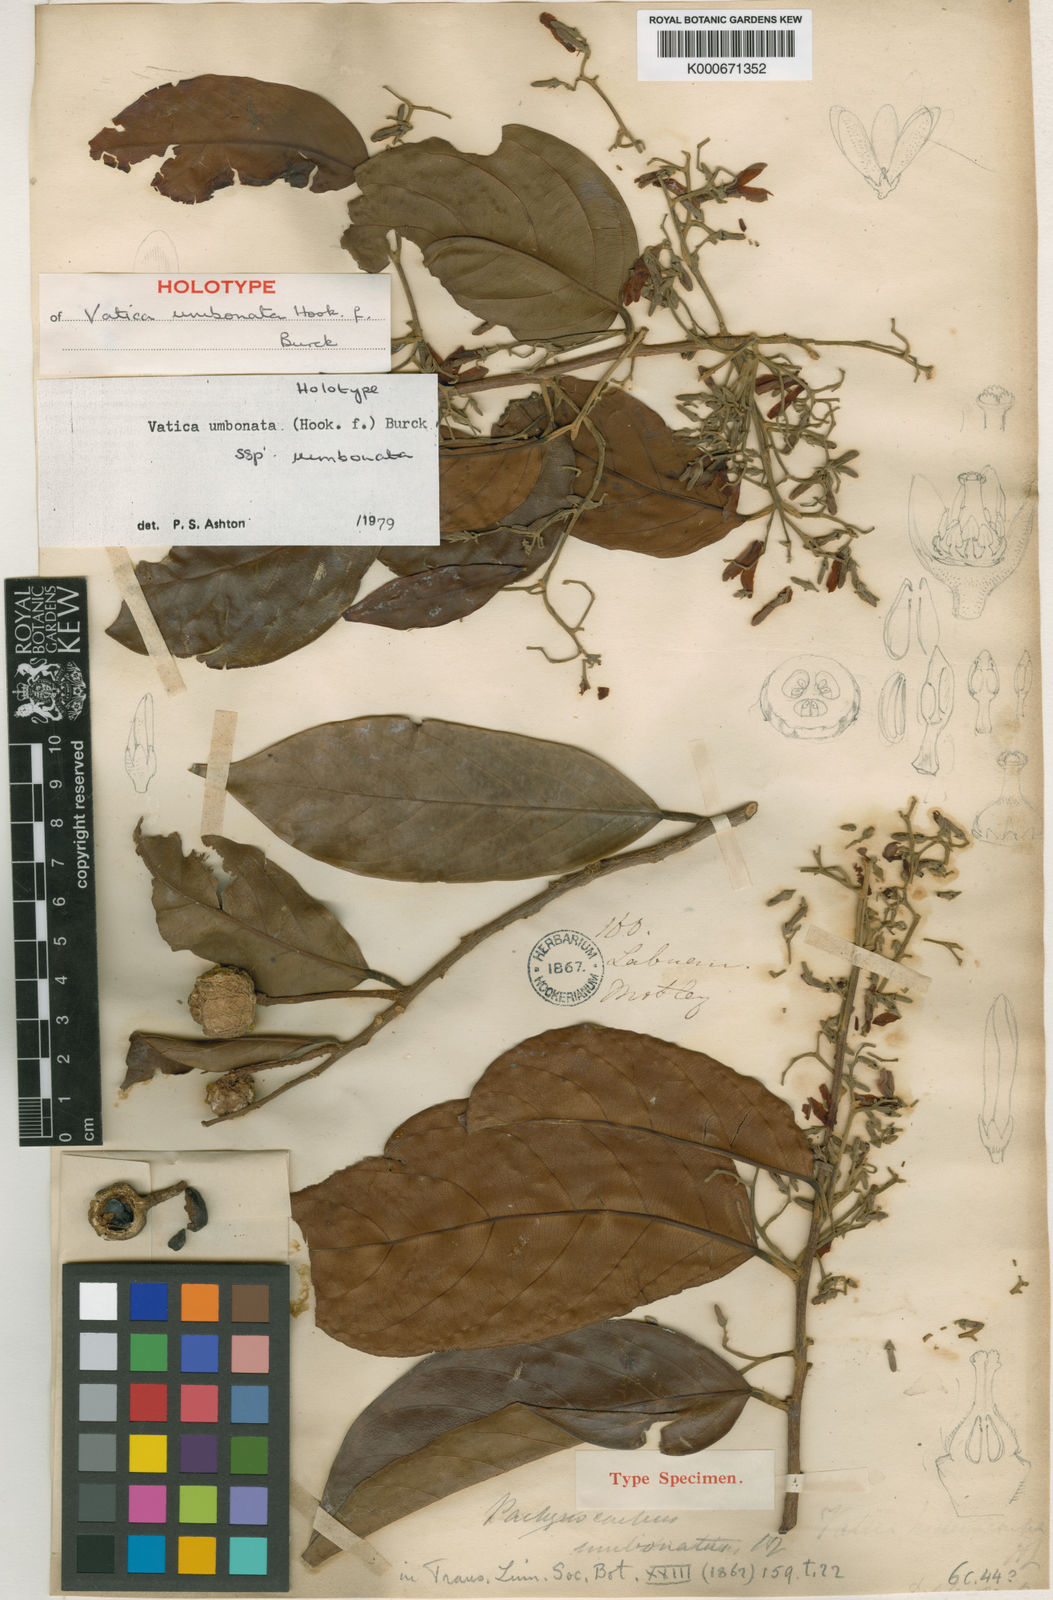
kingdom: Plantae
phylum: Tracheophyta
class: Magnoliopsida
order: Malvales
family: Dipterocarpaceae
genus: Vatica
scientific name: Vatica umbonata
